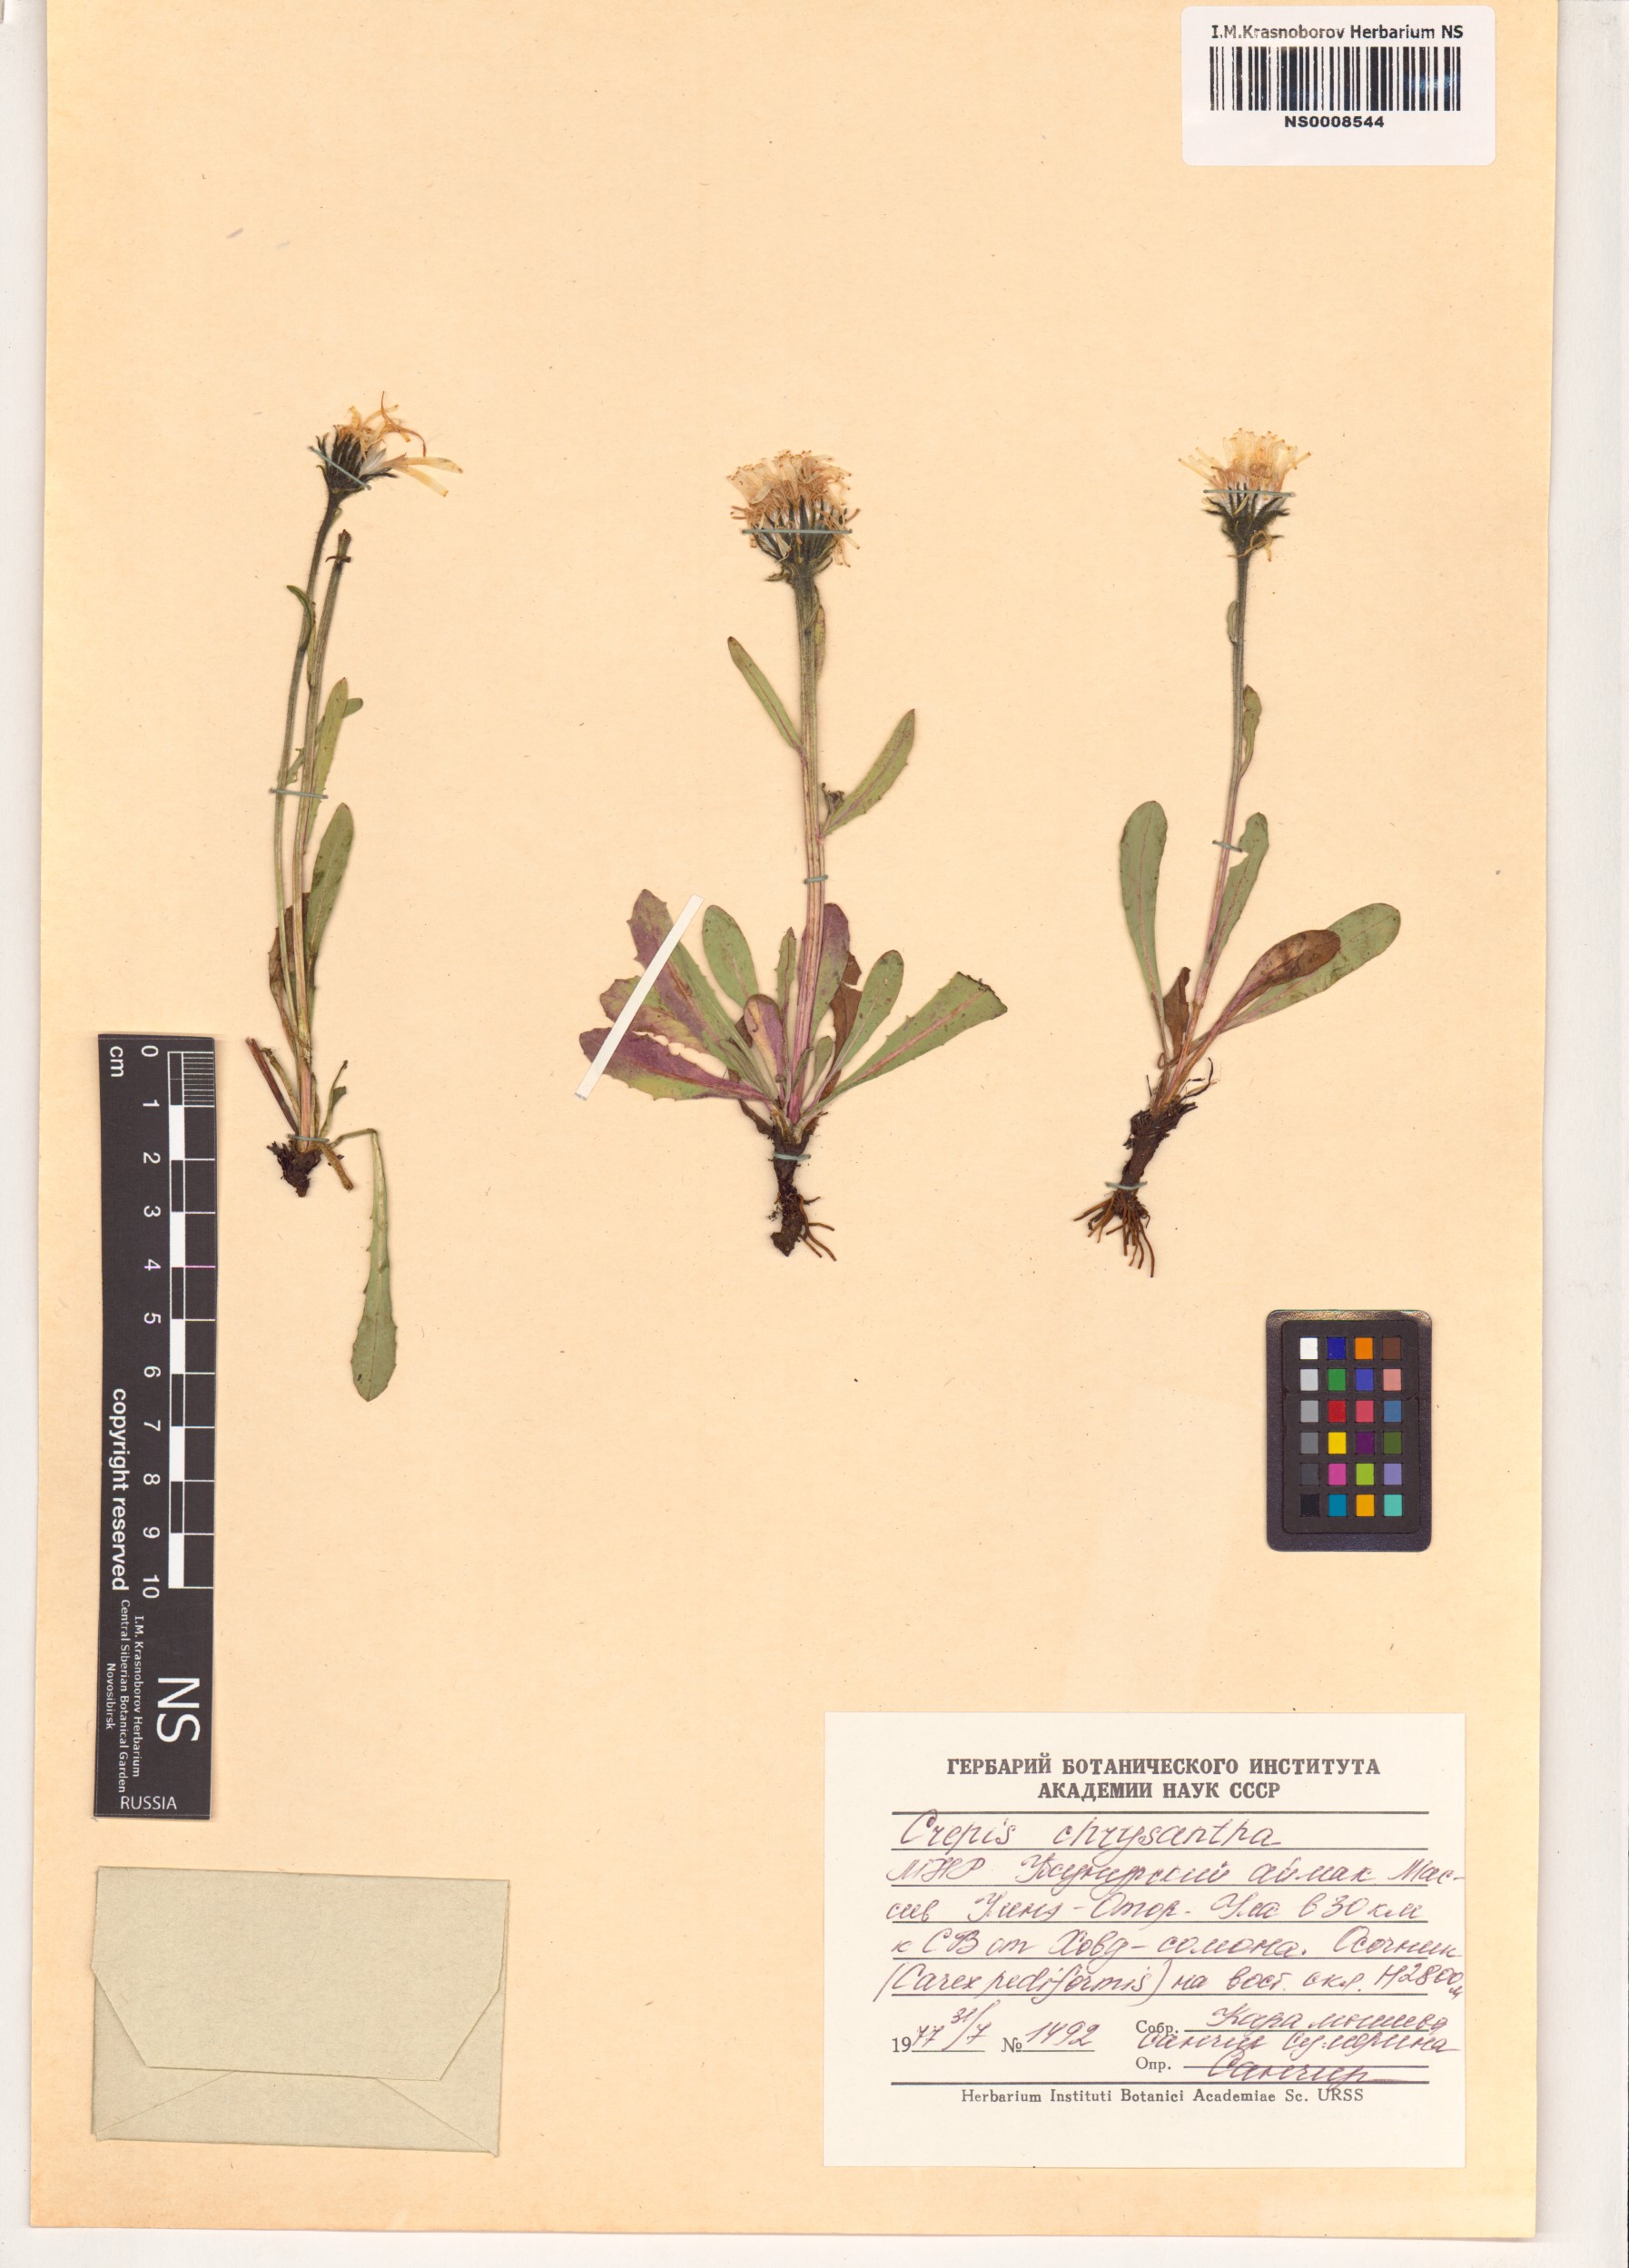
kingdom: Plantae
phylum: Tracheophyta
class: Magnoliopsida
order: Asterales
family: Asteraceae
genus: Crepis
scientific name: Crepis chrysantha
